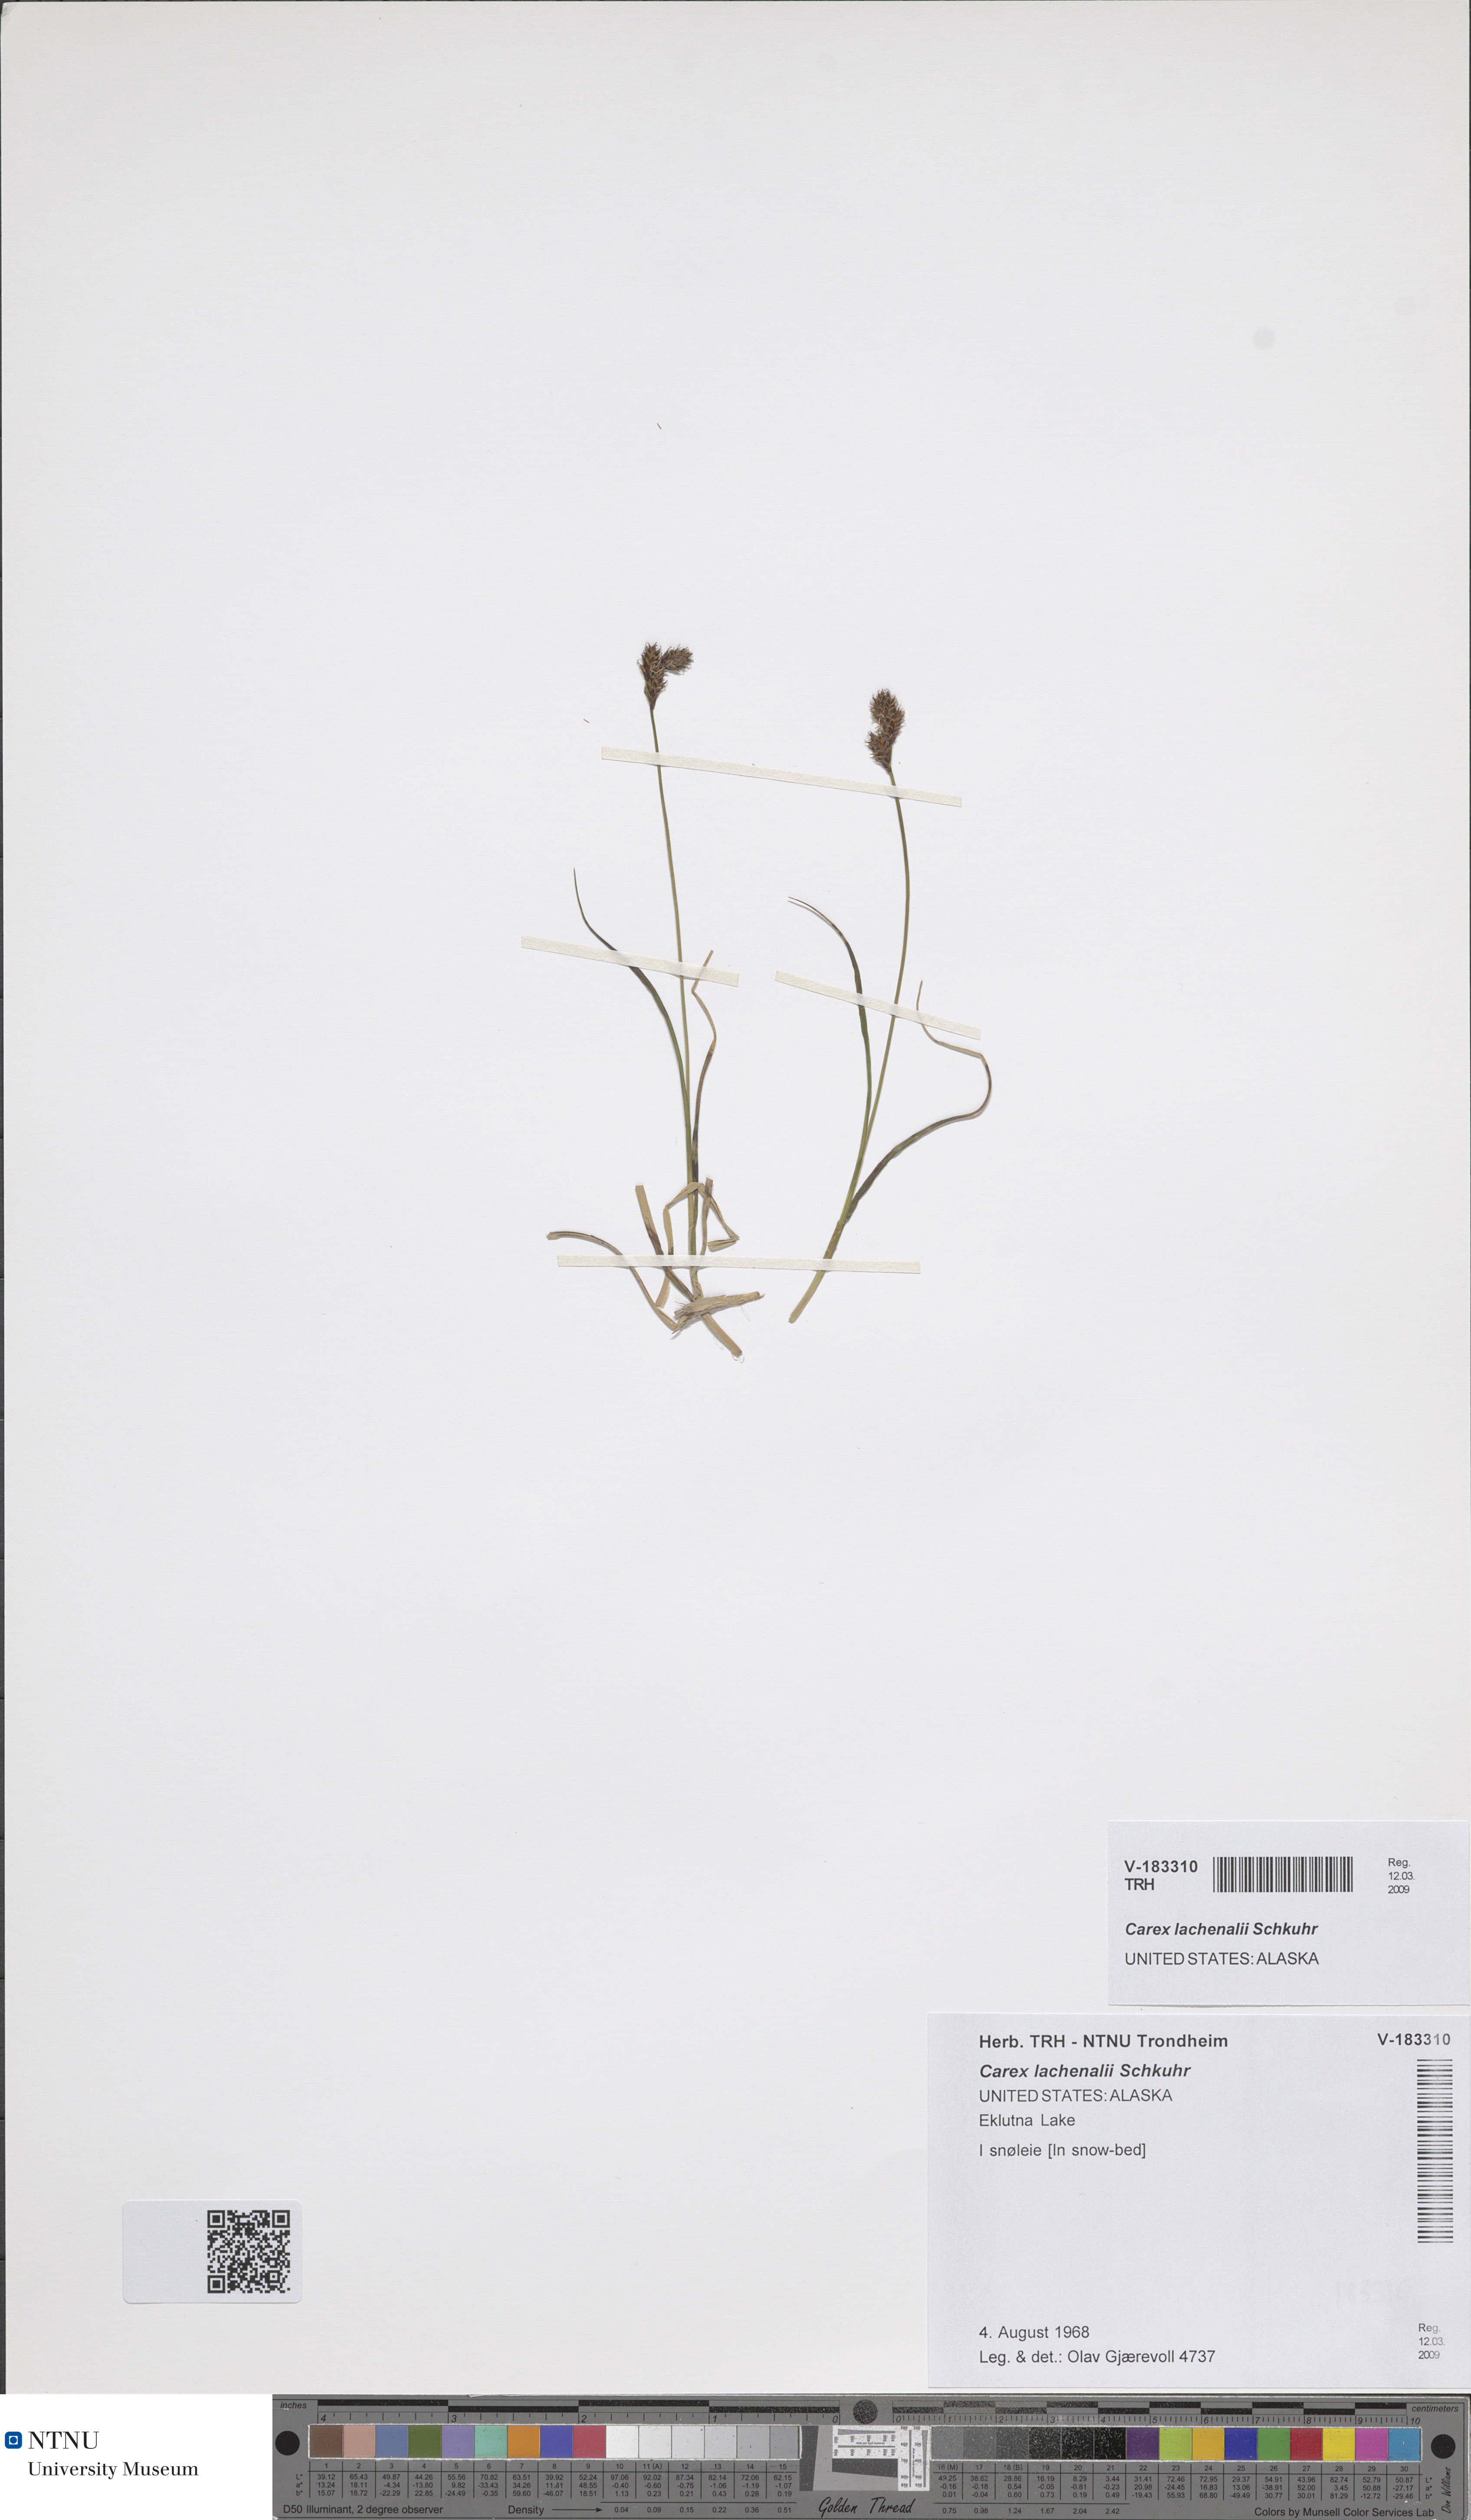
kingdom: Plantae
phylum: Tracheophyta
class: Liliopsida
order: Poales
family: Cyperaceae
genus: Carex
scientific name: Carex lachenalii
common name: Hare's-foot sedge
